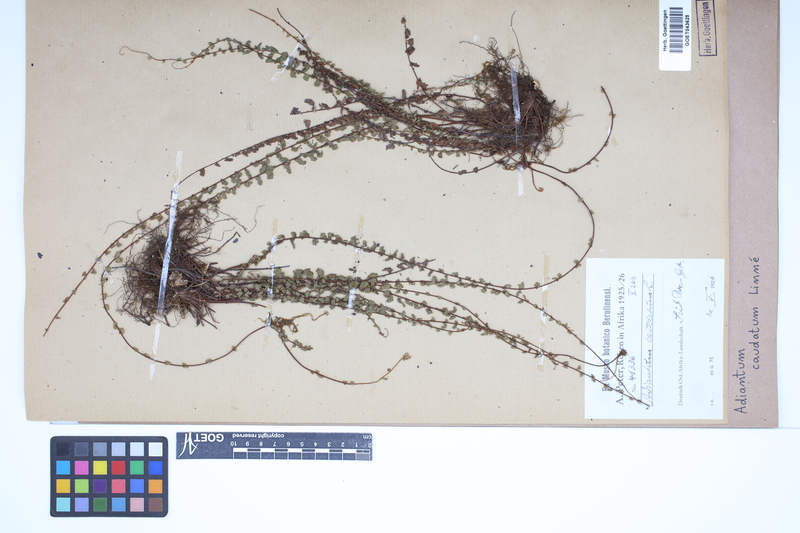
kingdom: Plantae
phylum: Tracheophyta
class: Polypodiopsida
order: Polypodiales
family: Pteridaceae
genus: Adiantum
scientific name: Adiantum caudatum
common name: Tailed maidenhair
